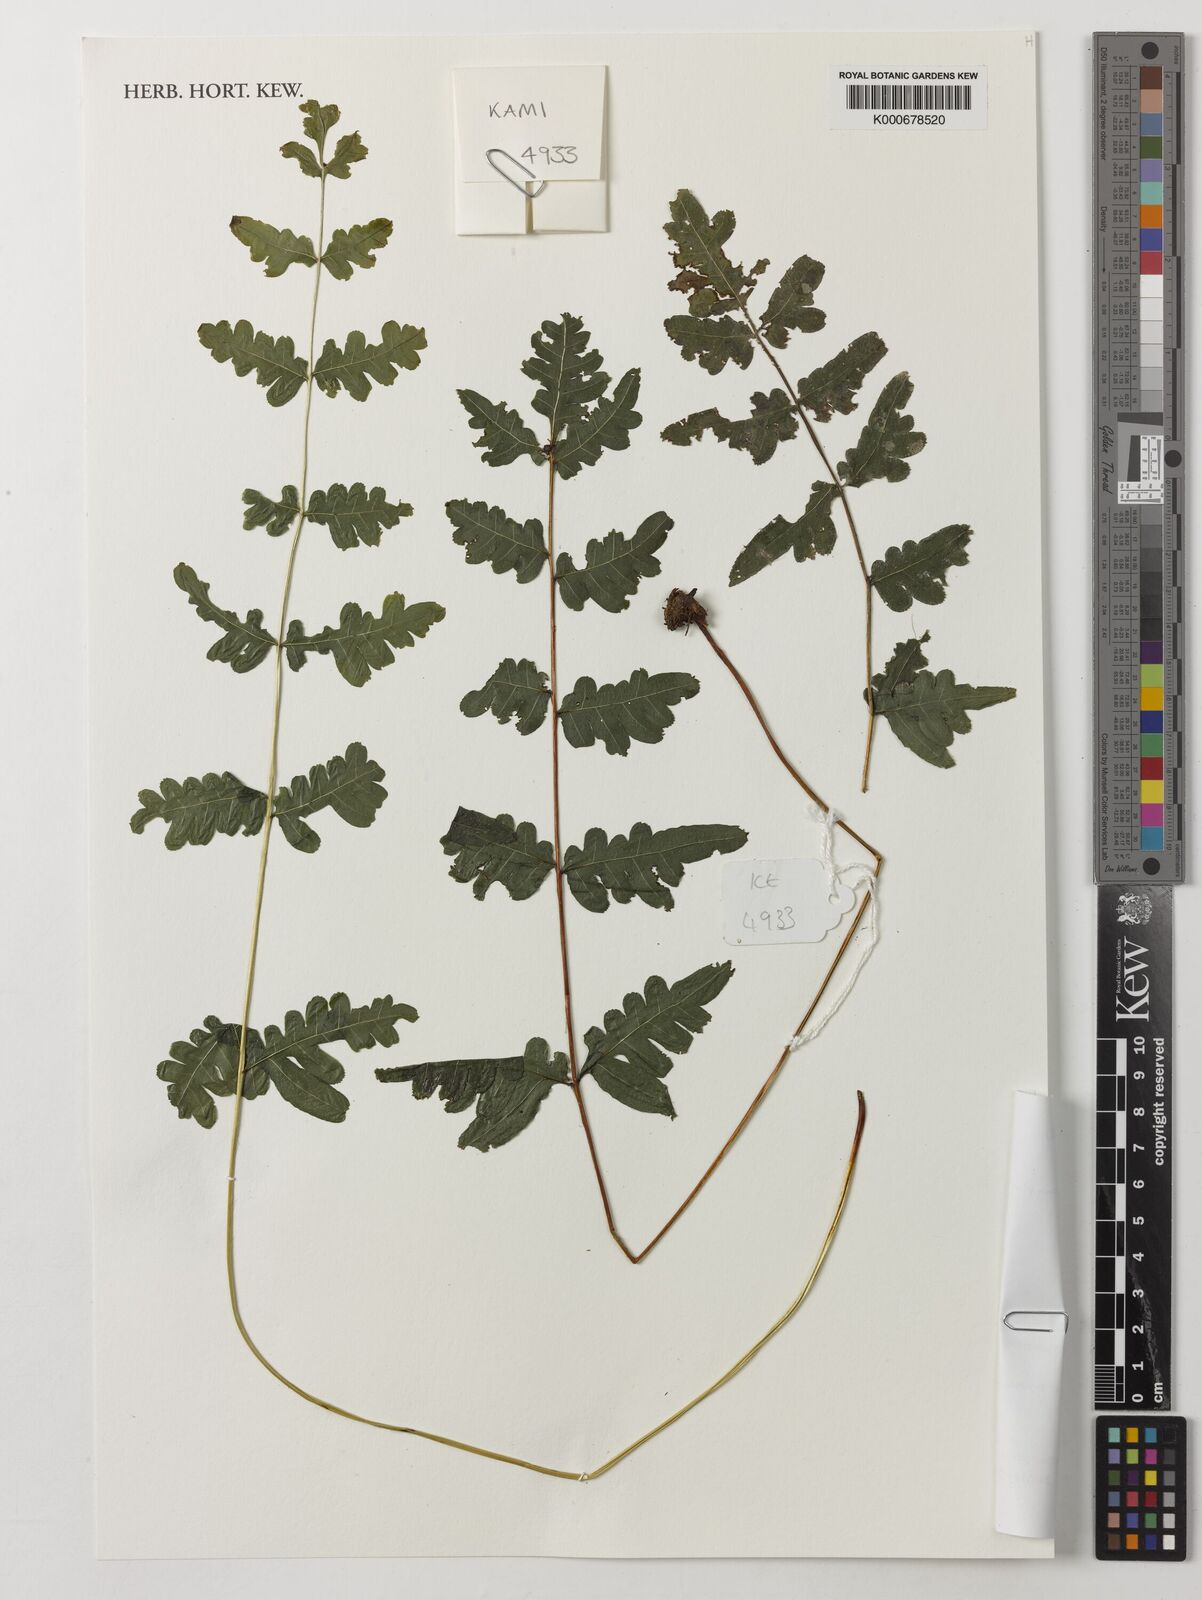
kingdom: Plantae
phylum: Tracheophyta
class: Polypodiopsida
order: Polypodiales
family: Pteridaceae
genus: Pteris
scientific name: Pteris similis
